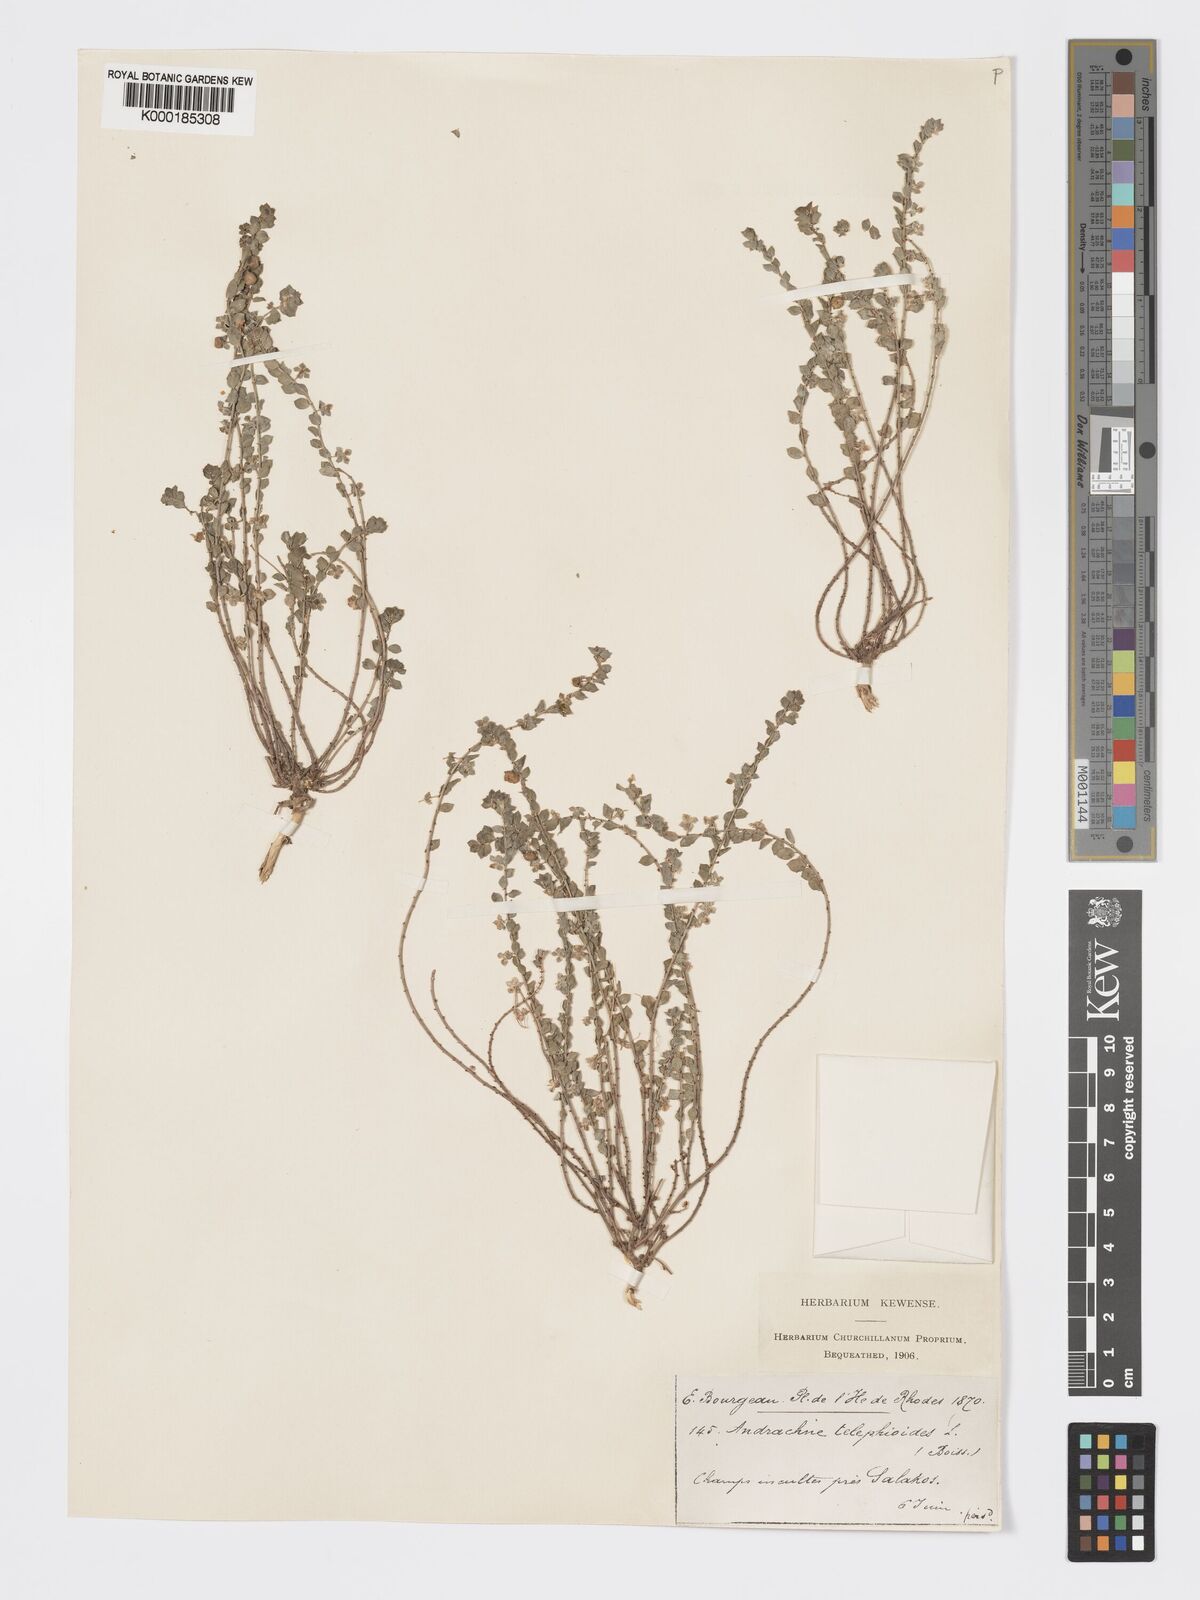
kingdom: Plantae
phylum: Tracheophyta
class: Magnoliopsida
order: Malpighiales
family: Phyllanthaceae
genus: Andrachne
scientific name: Andrachne telephioides
